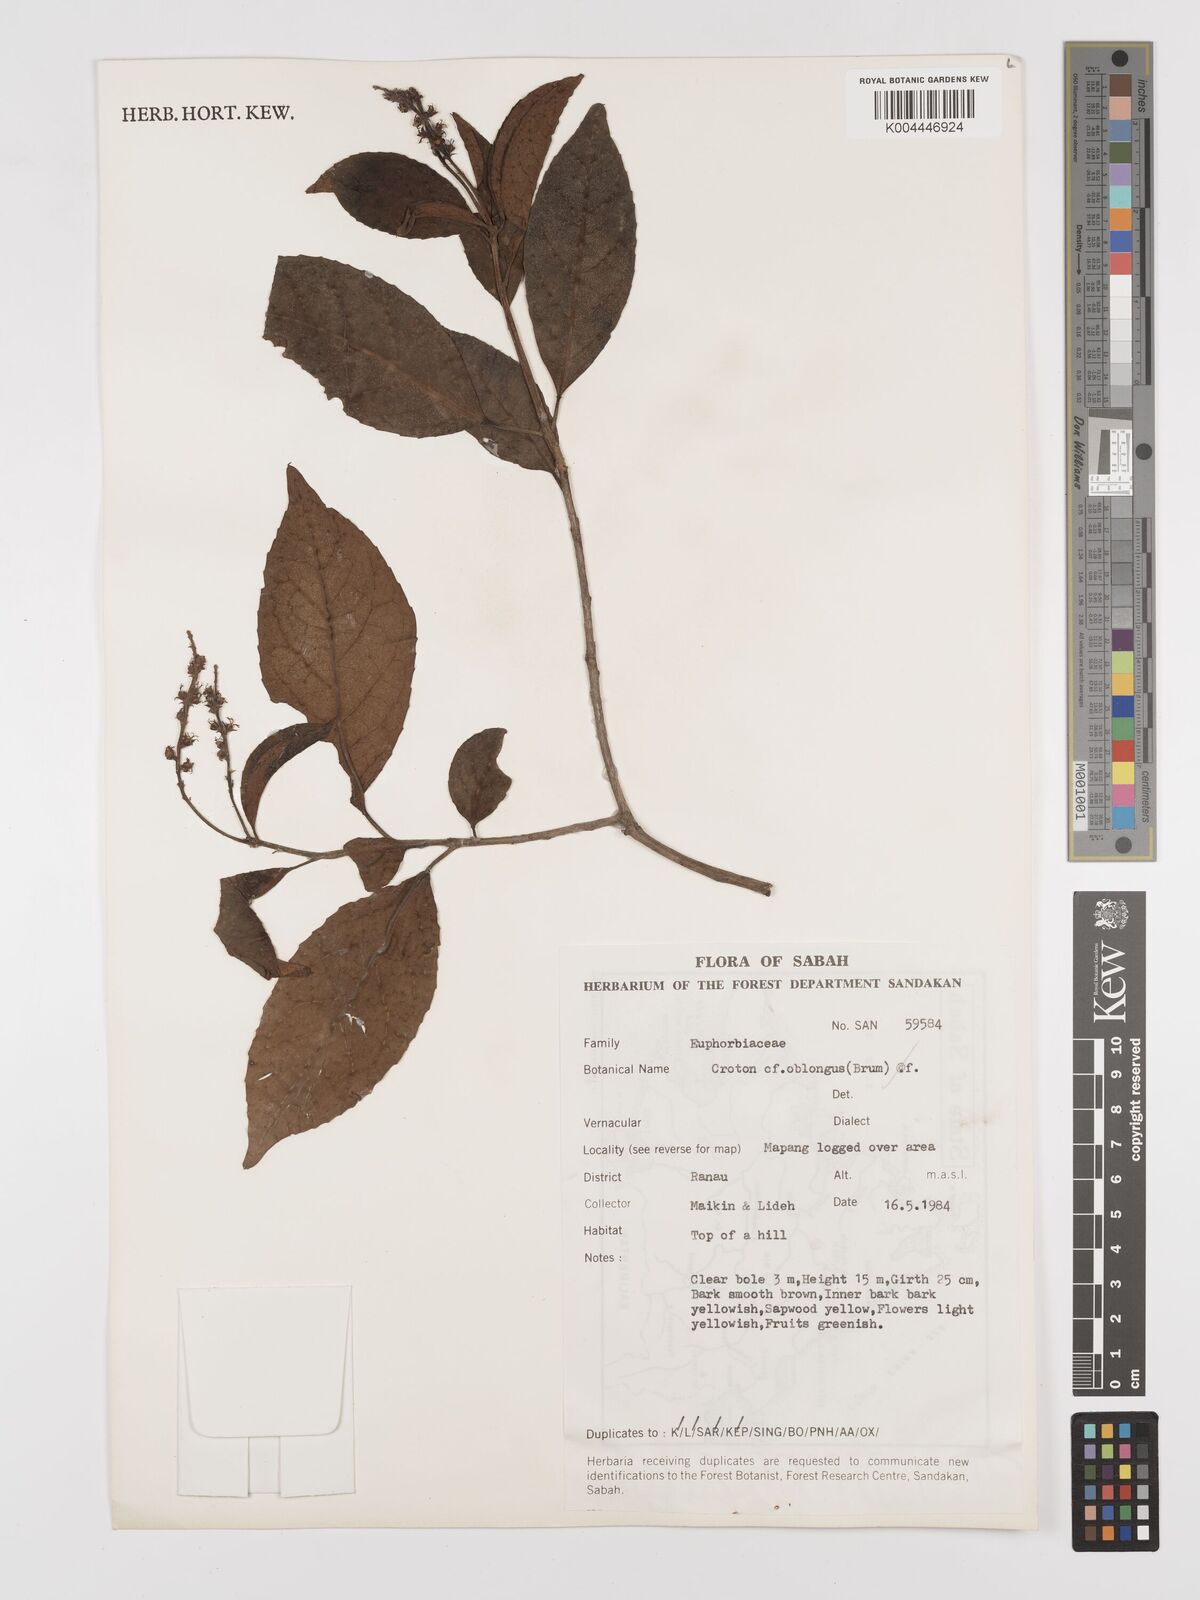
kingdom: Plantae
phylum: Tracheophyta
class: Magnoliopsida
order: Malpighiales
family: Euphorbiaceae
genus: Croton
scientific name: Croton oblongus
